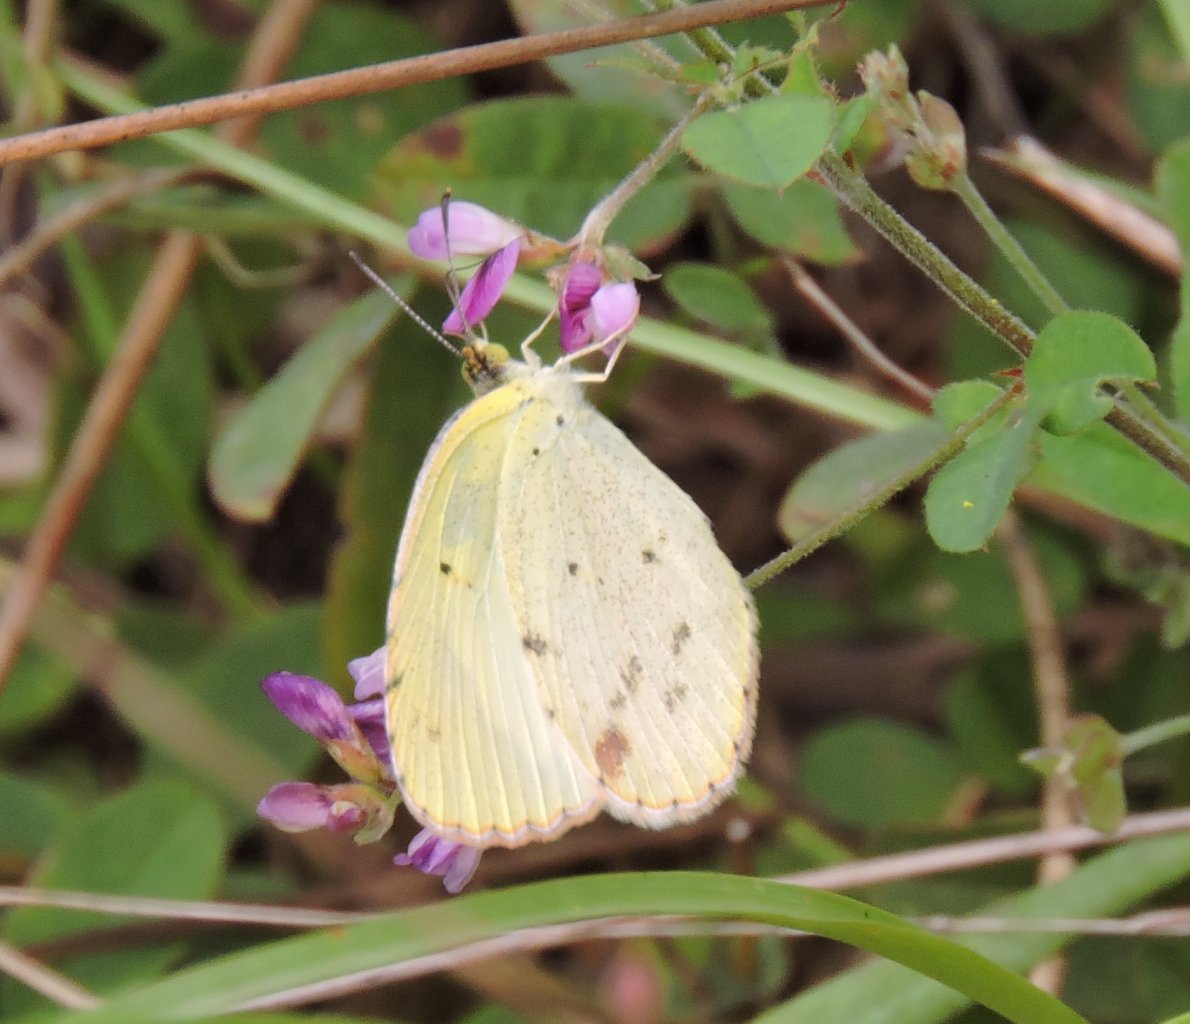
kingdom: Animalia
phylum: Arthropoda
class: Insecta
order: Lepidoptera
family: Pieridae
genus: Pyrisitia
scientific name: Pyrisitia lisa
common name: Little Yellow
